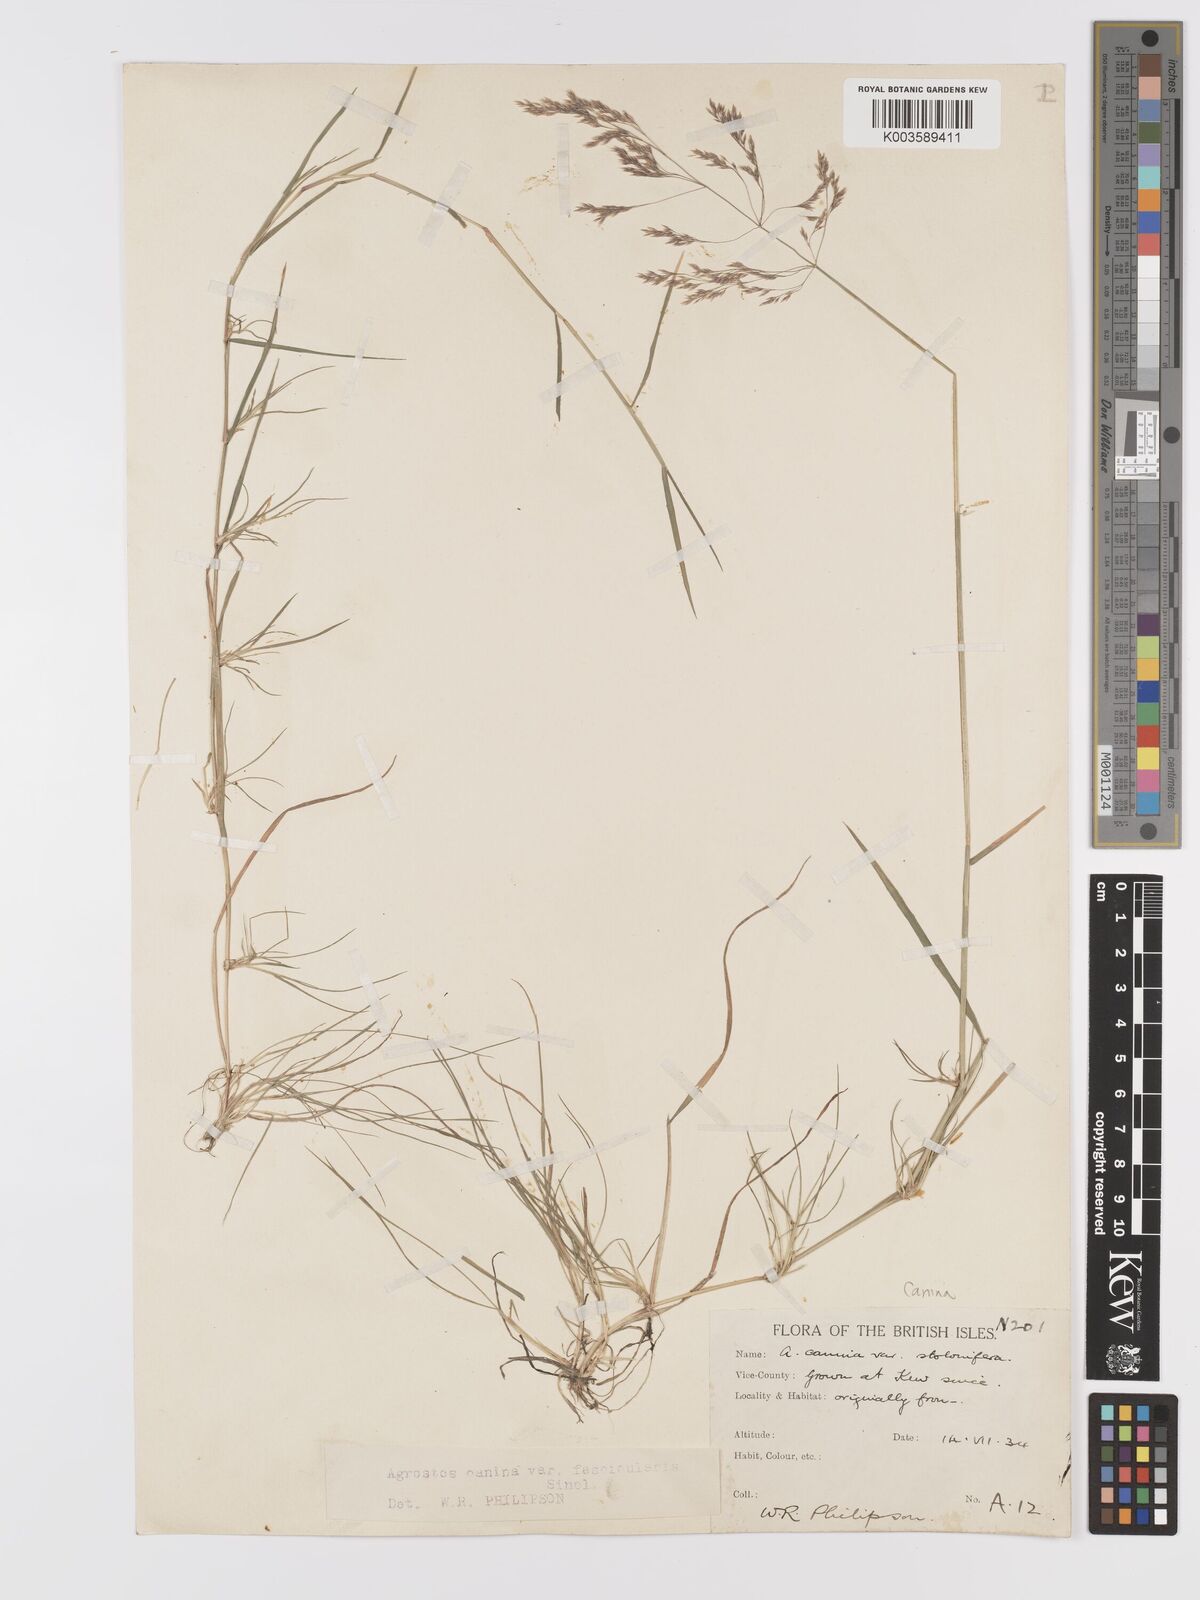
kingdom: Plantae
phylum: Tracheophyta
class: Liliopsida
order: Poales
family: Poaceae
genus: Agrostis
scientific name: Agrostis canina
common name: Velvet bent
